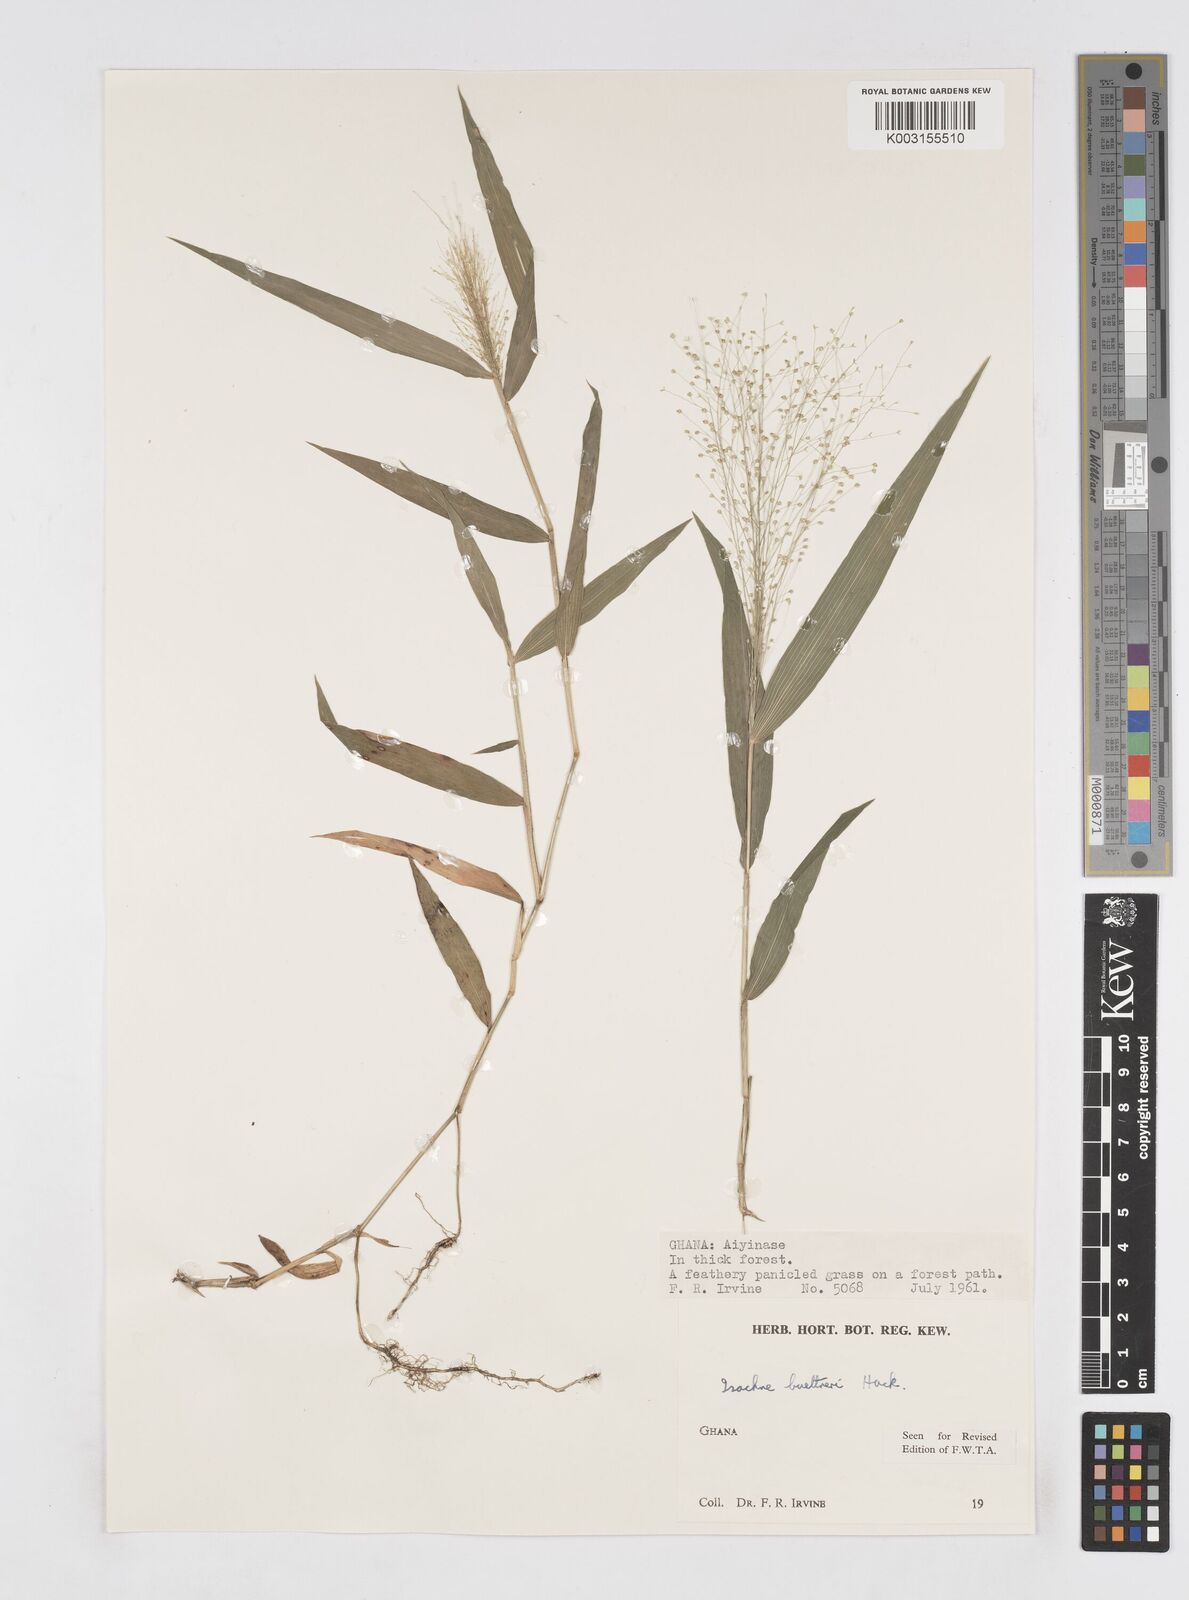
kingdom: Plantae
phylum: Tracheophyta
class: Liliopsida
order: Poales
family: Poaceae
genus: Isachne
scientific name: Isachne albens
